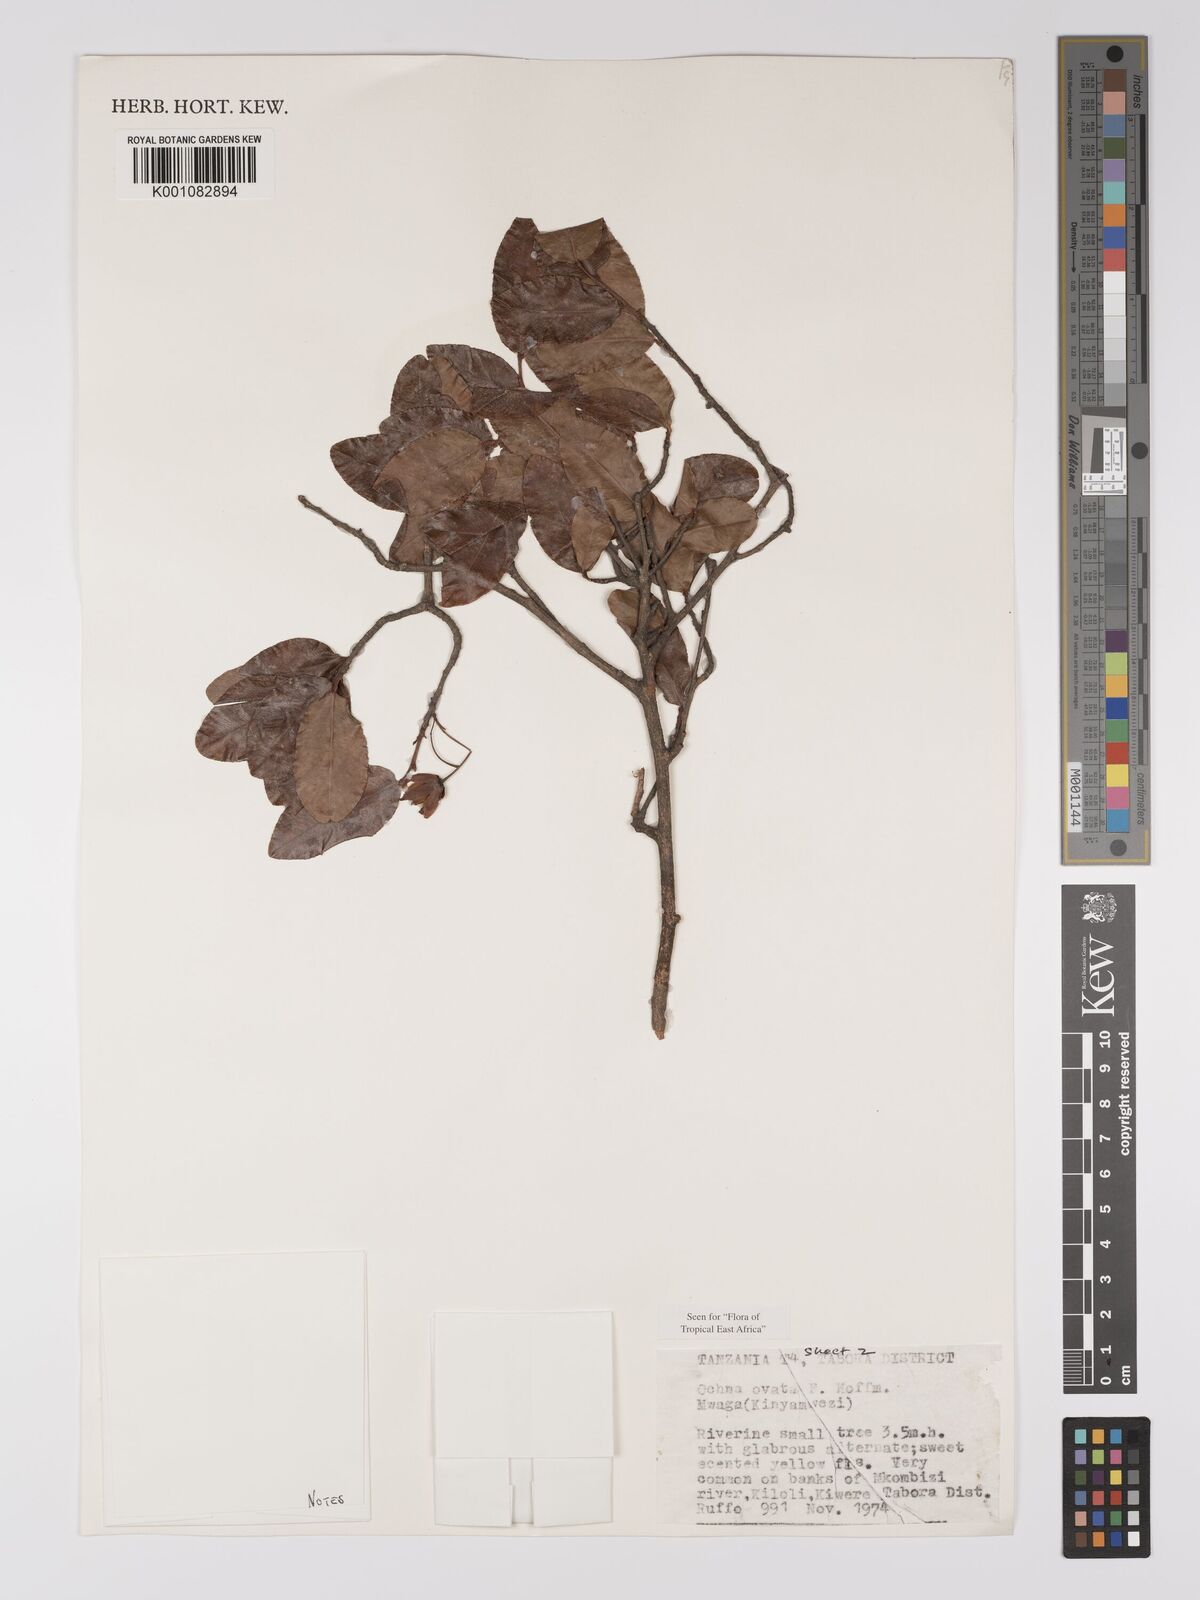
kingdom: Plantae
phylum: Tracheophyta
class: Magnoliopsida
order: Malpighiales
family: Ochnaceae
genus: Ochna
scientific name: Ochna ovata
